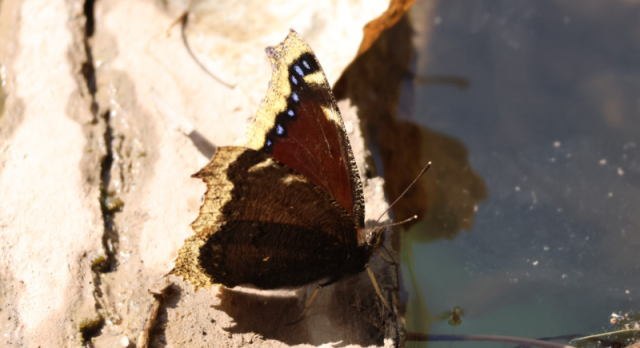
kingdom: Animalia
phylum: Arthropoda
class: Insecta
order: Lepidoptera
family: Nymphalidae
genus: Nymphalis
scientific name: Nymphalis antiopa
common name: Mourning Cloak
